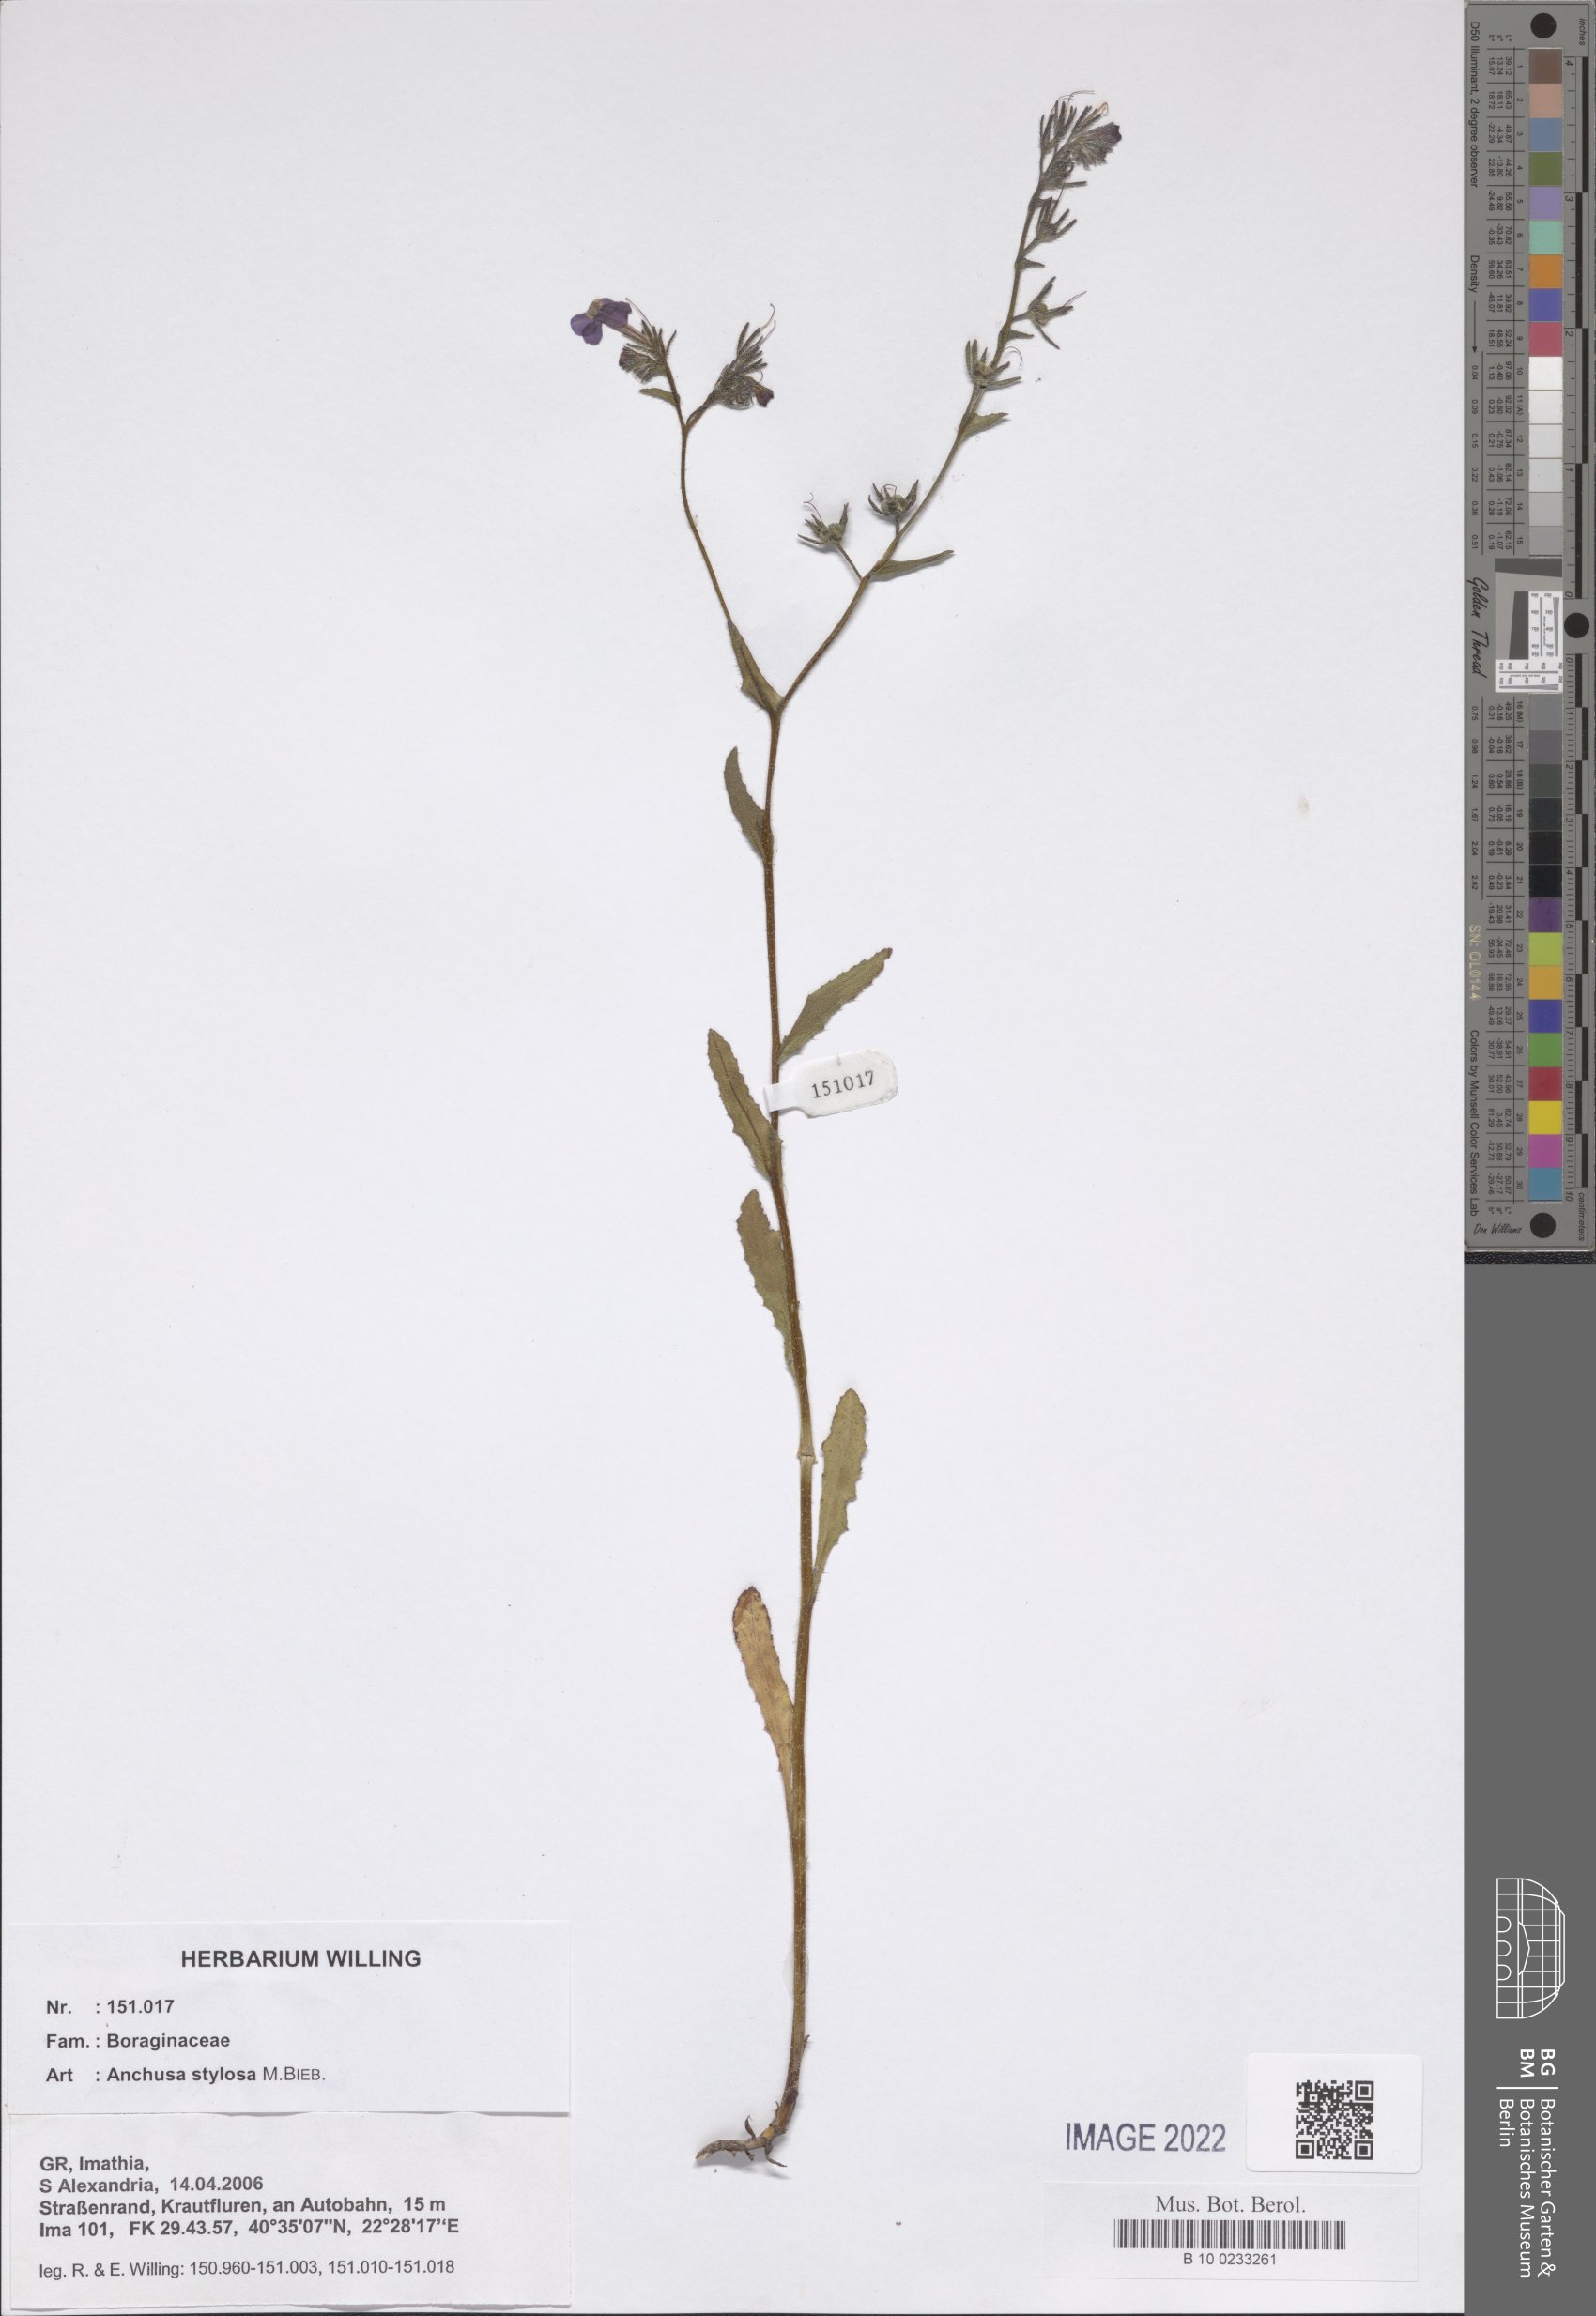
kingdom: Plantae
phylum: Tracheophyta
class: Magnoliopsida
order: Boraginales
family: Boraginaceae
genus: Anchusa
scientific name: Anchusa stylosa
